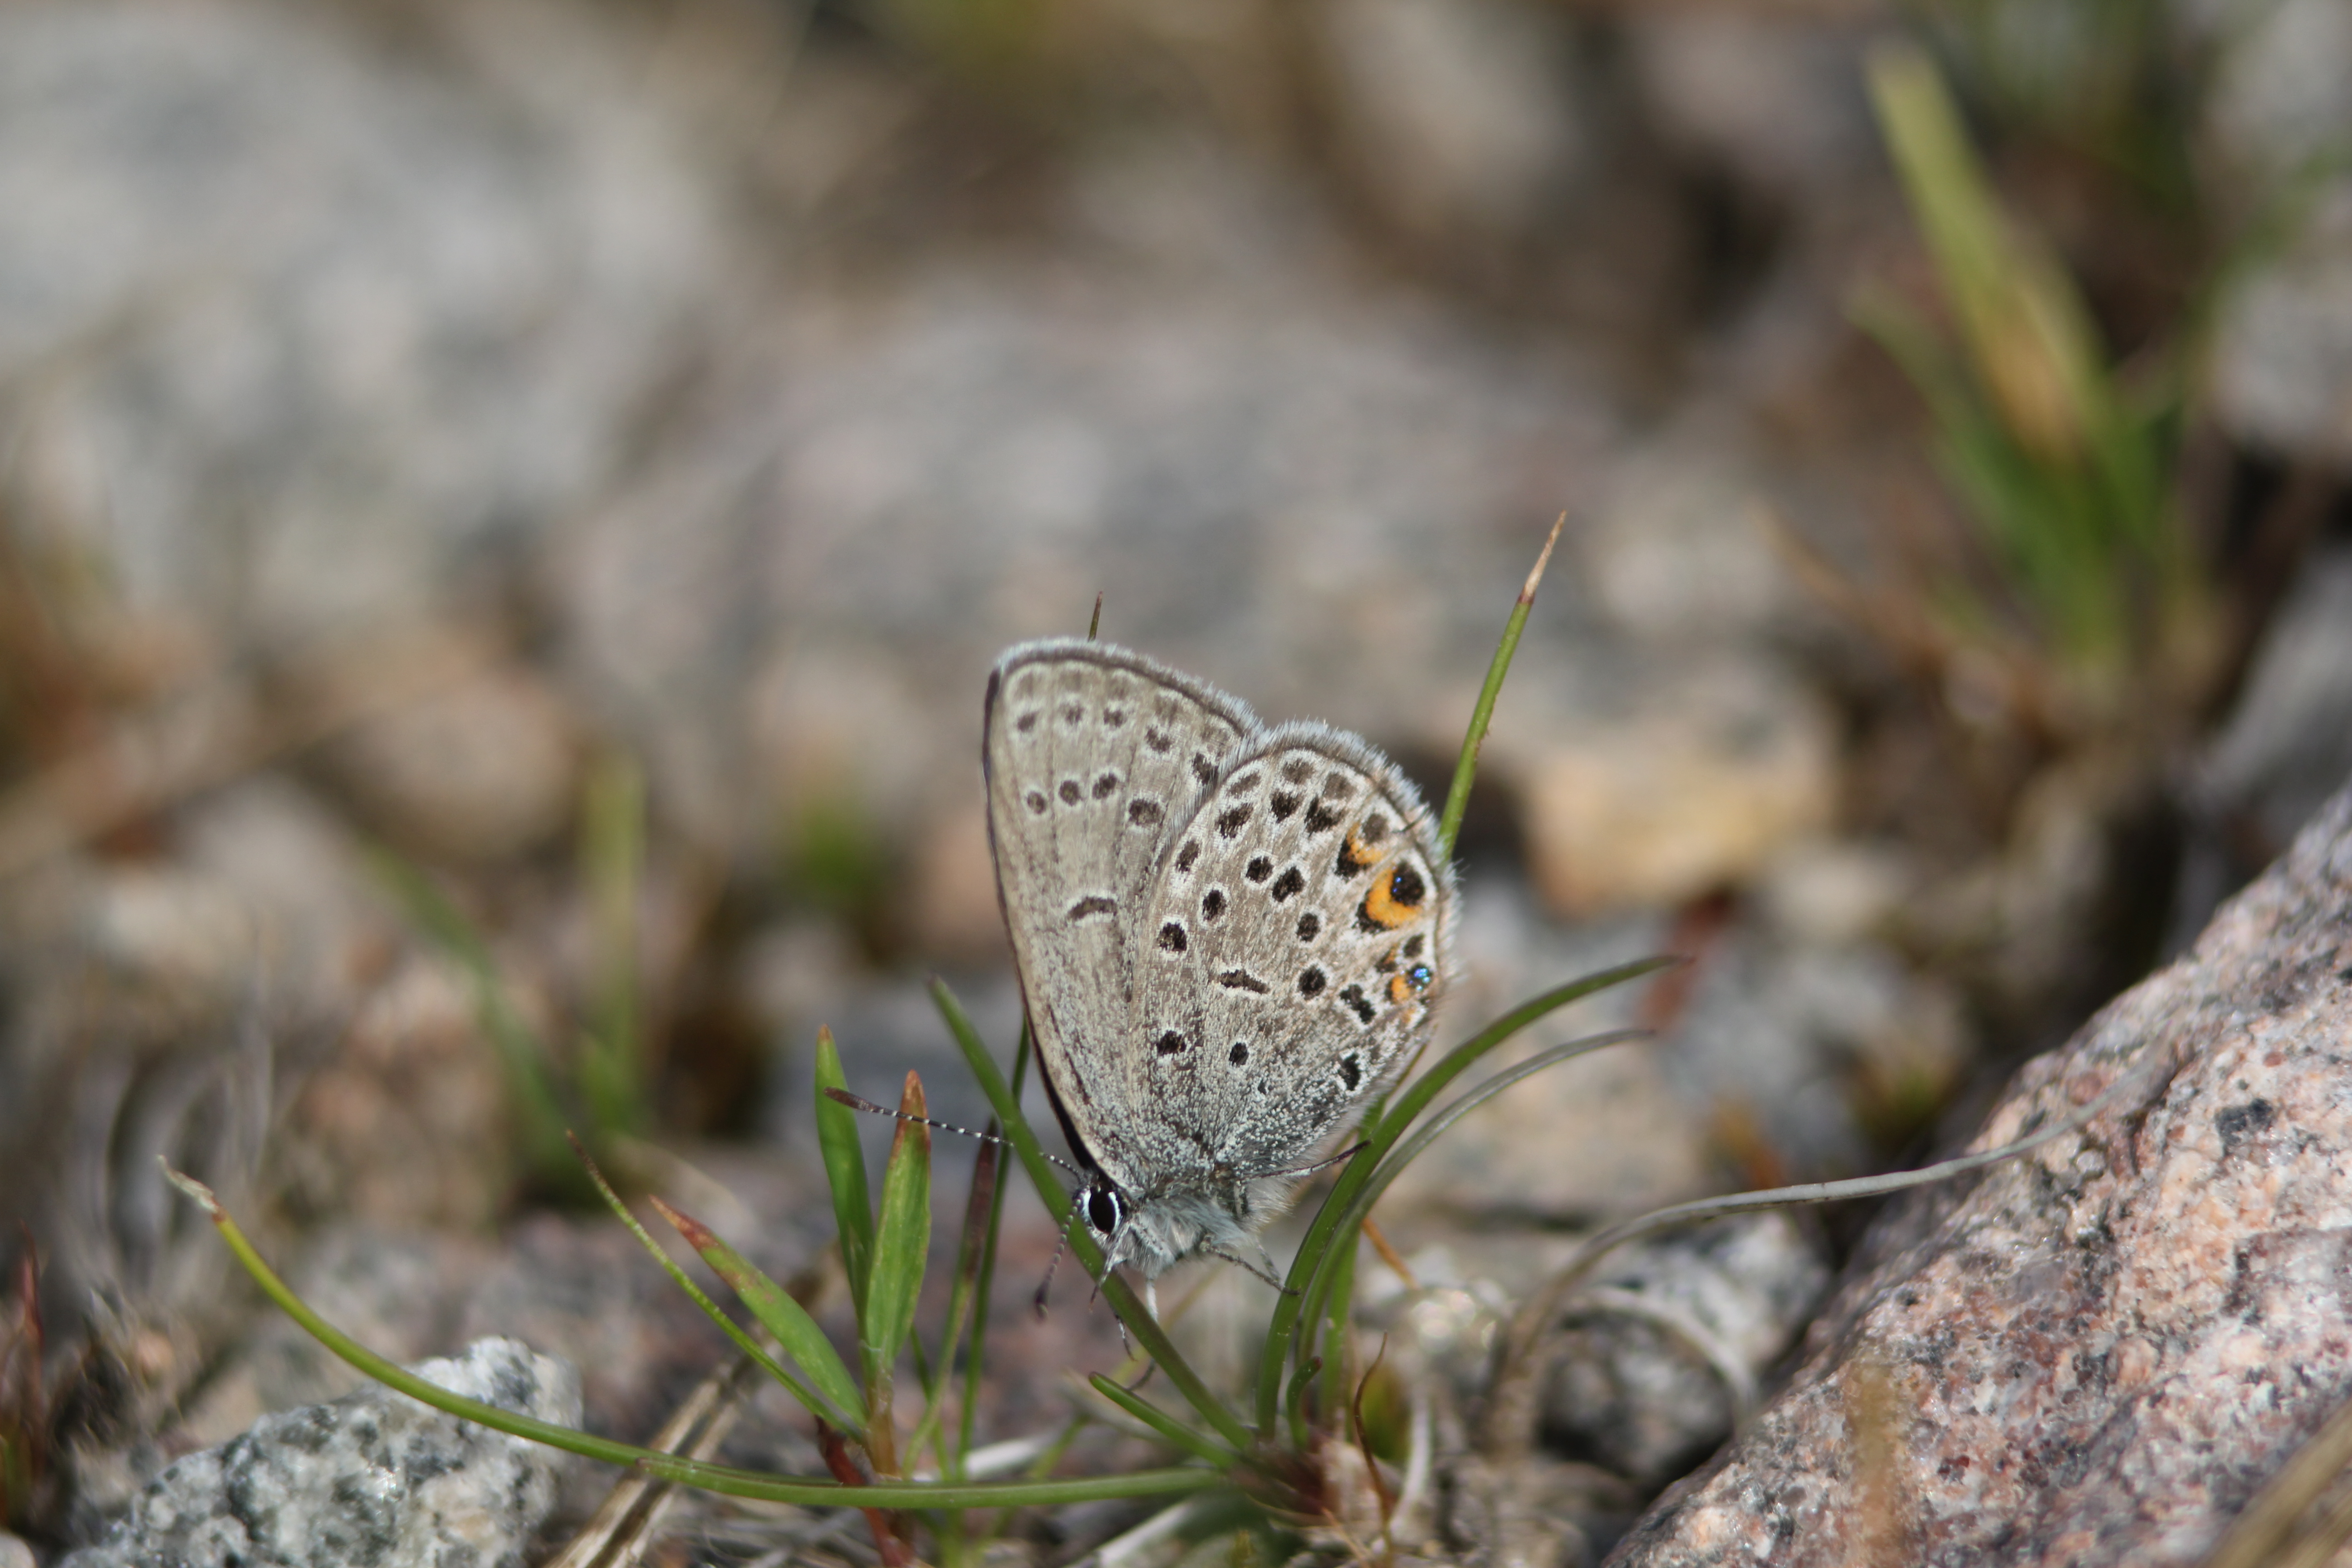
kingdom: Animalia
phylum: Arthropoda
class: Insecta
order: Lepidoptera
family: Lycaenidae
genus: Vacciniina
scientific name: Vacciniina optilete
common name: Cranberry blue
